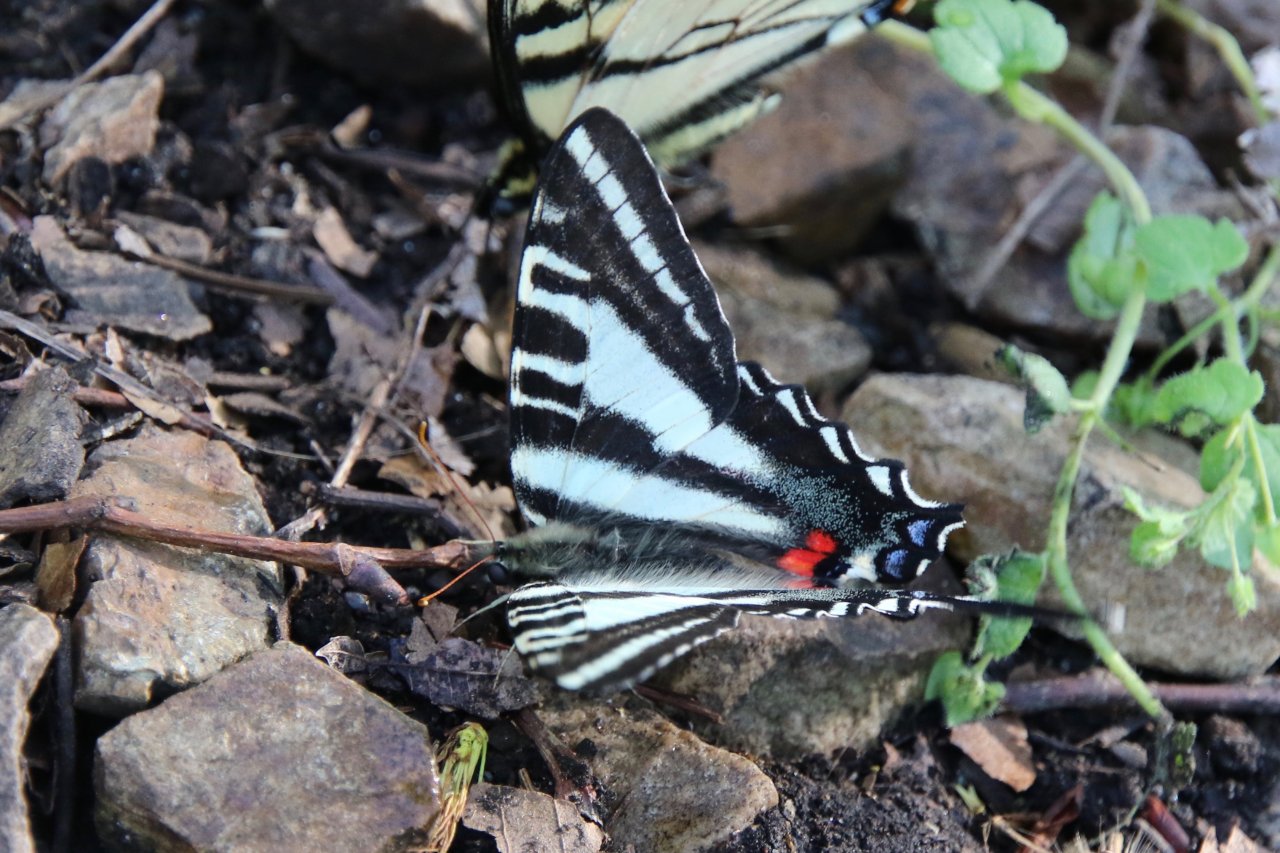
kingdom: Animalia
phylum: Arthropoda
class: Insecta
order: Lepidoptera
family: Papilionidae
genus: Protographium
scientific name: Protographium marcellus
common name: Zebra Swallowtail
